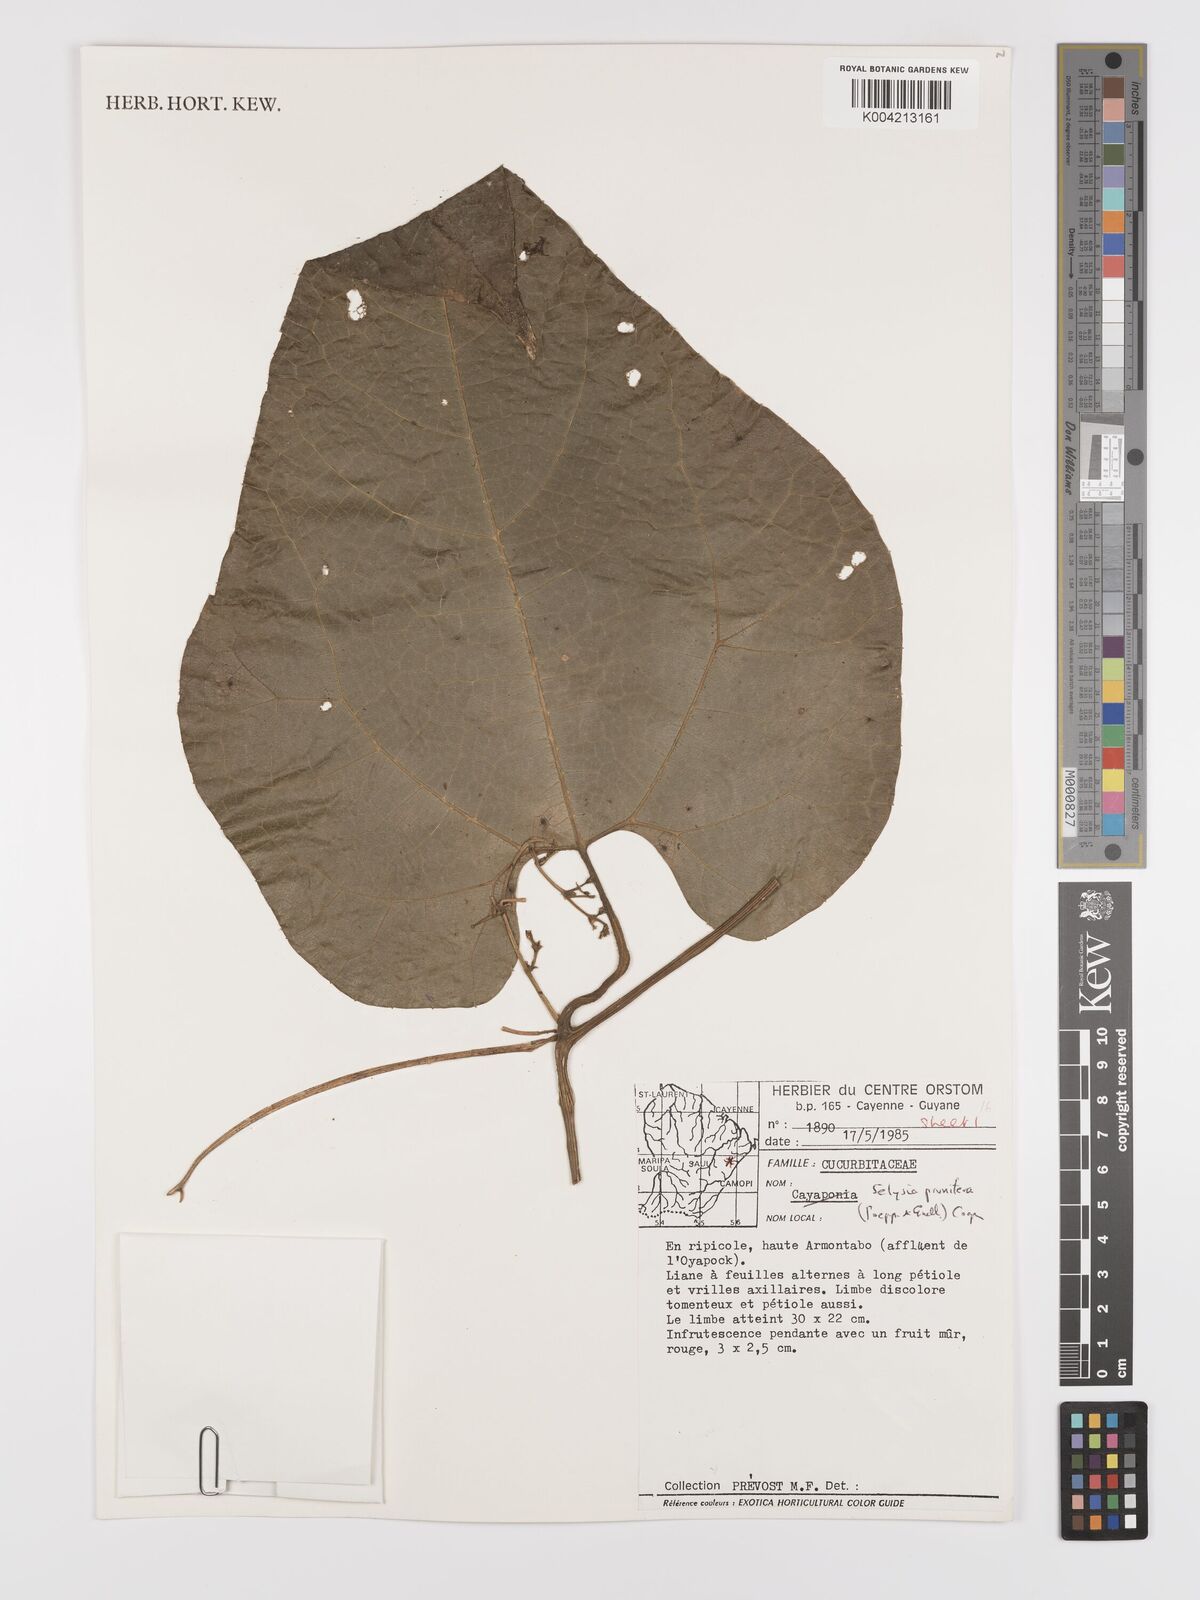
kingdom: Plantae
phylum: Tracheophyta
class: Magnoliopsida
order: Cucurbitales
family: Cucurbitaceae
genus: Cayaponia
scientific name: Cayaponia prunifera
